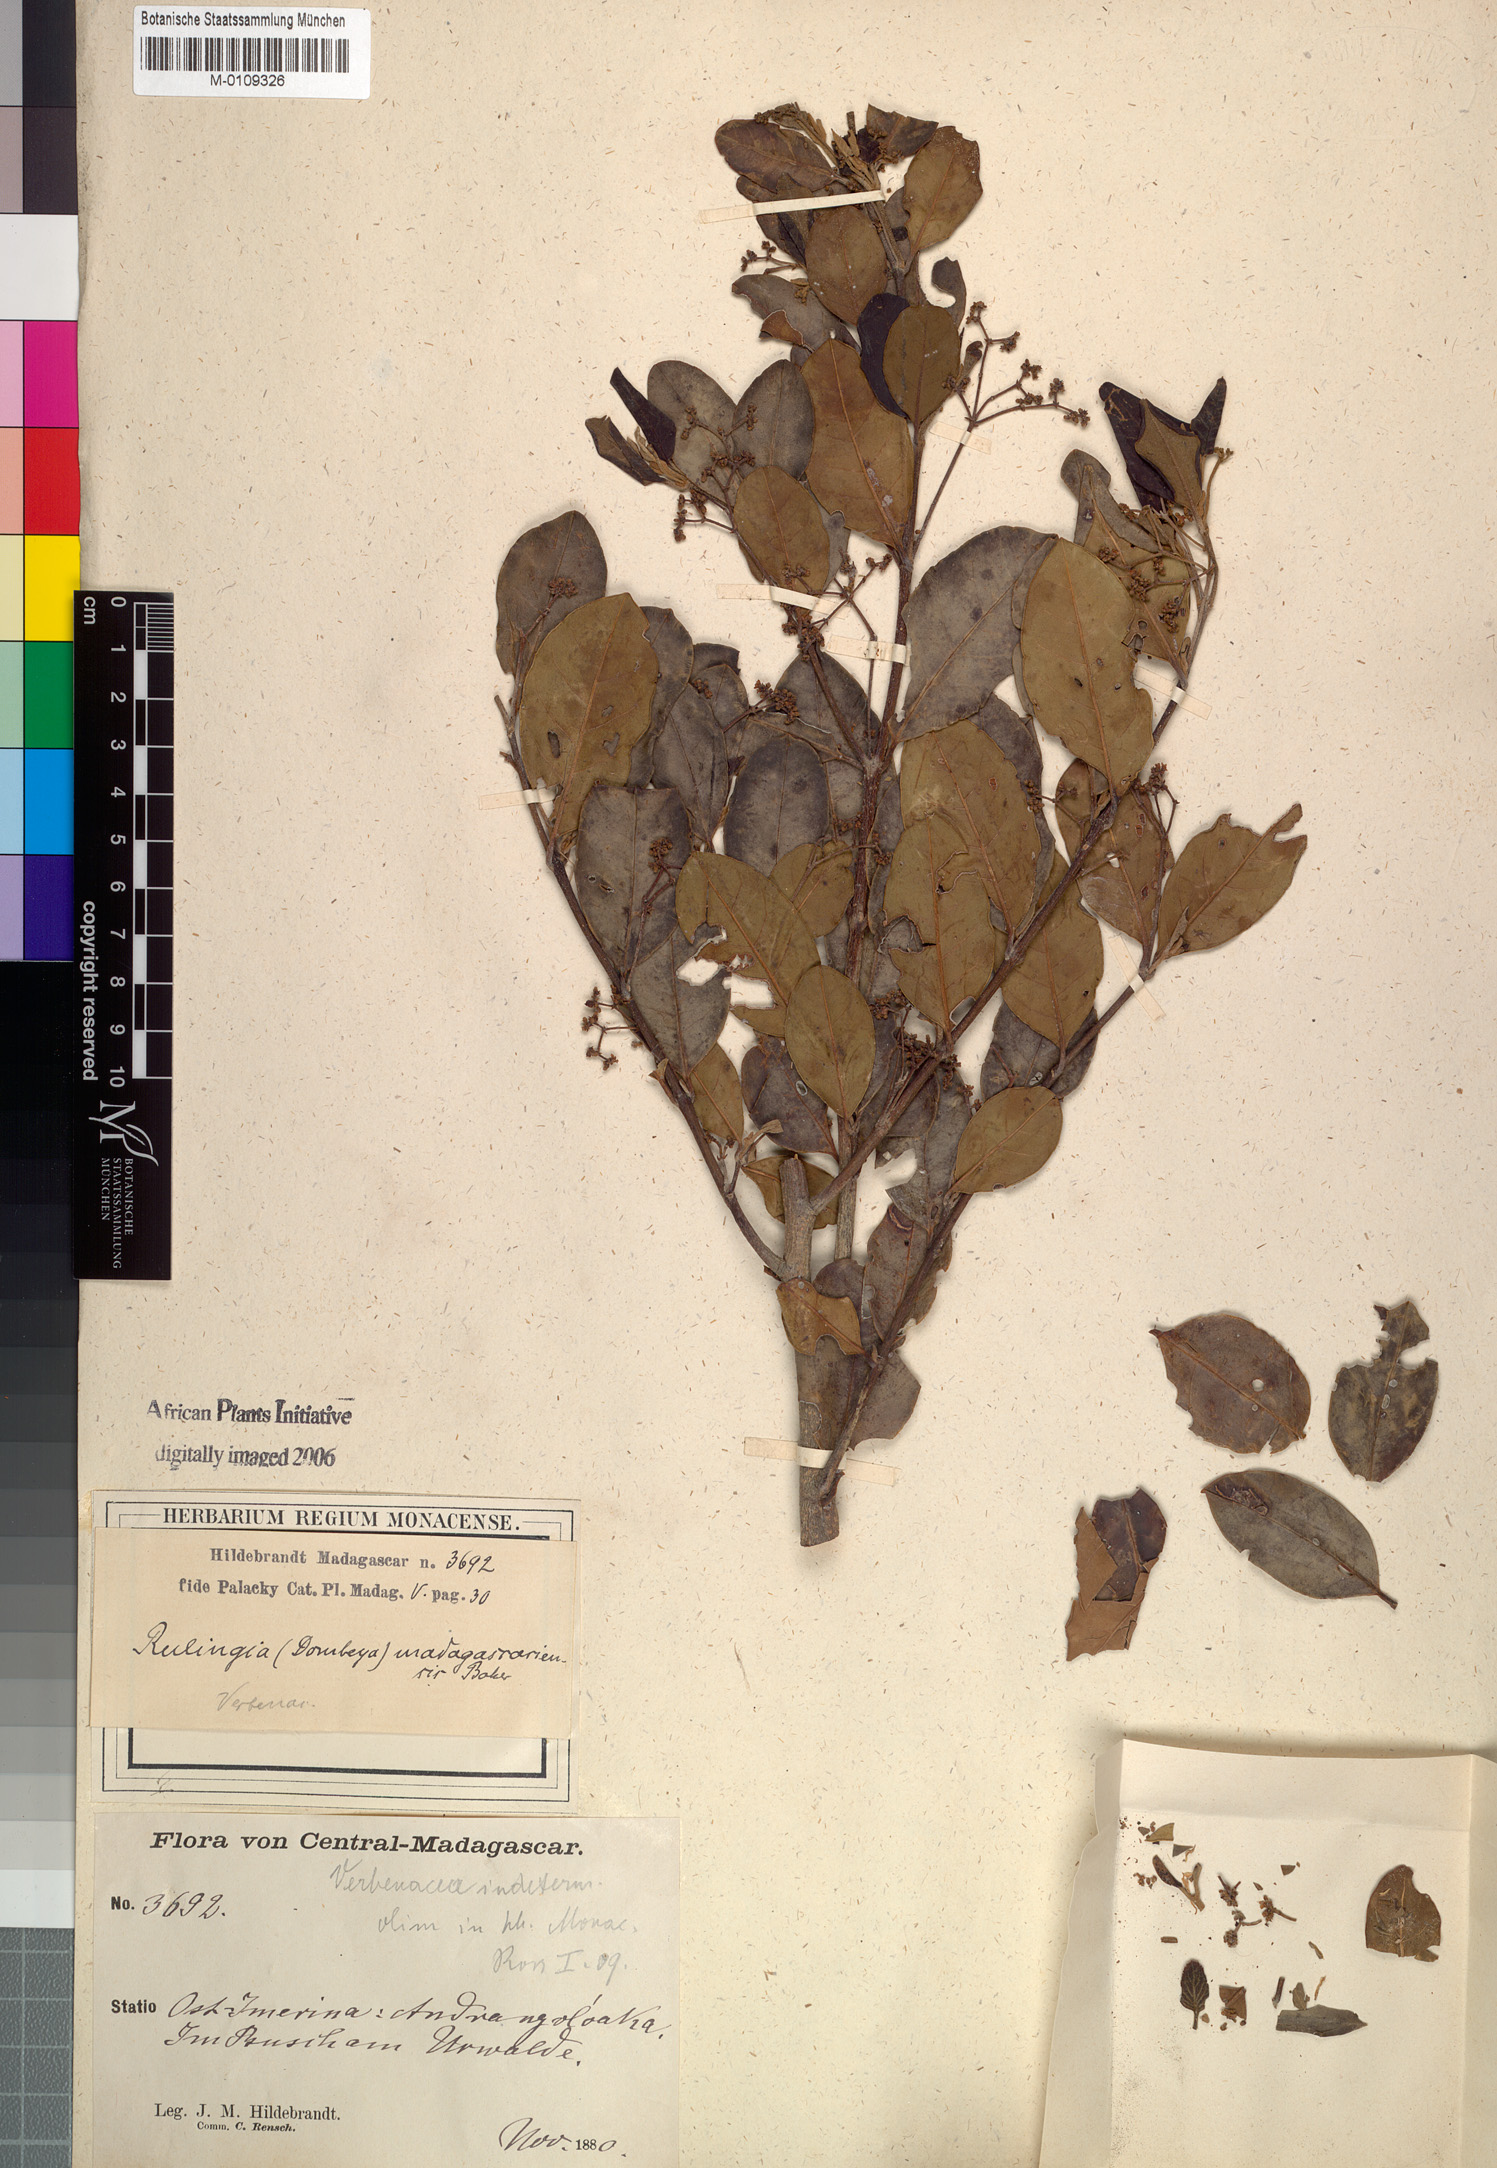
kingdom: Plantae
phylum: Tracheophyta
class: Magnoliopsida
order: Malvales
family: Malvaceae
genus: Commersonia
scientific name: Commersonia madagascariensis
